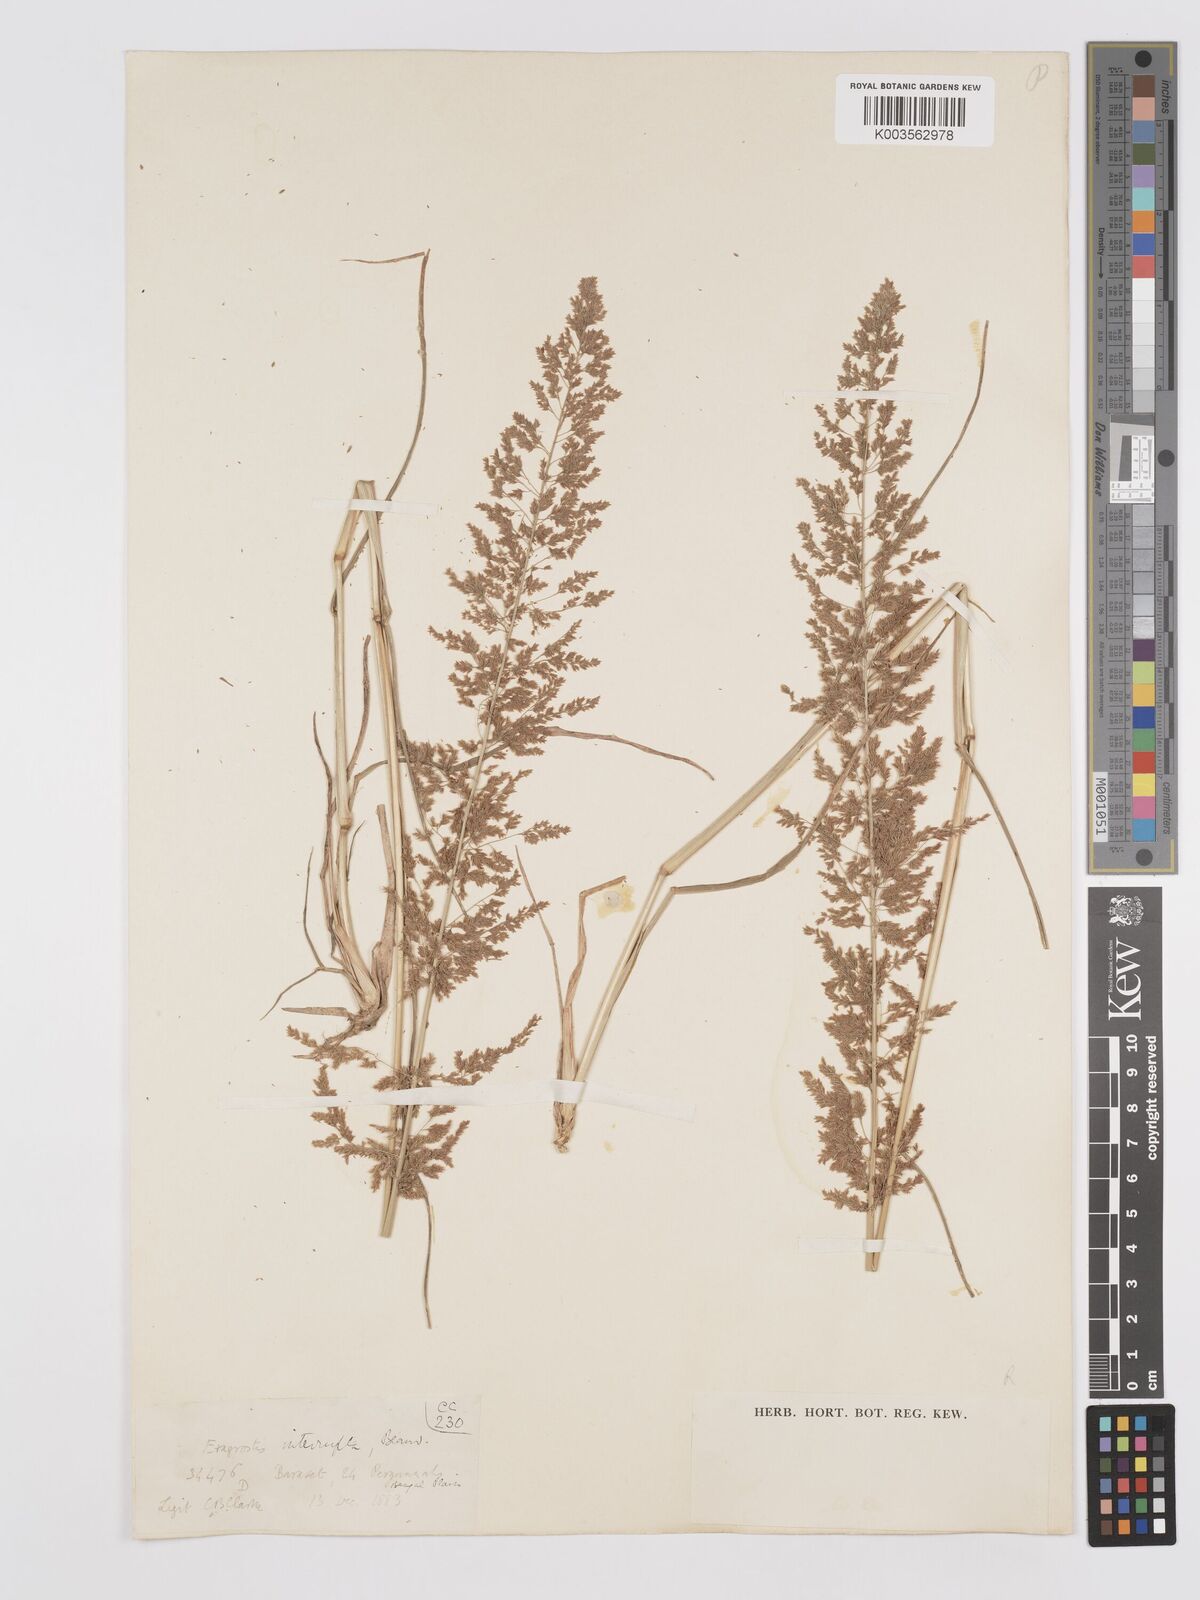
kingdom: Plantae
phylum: Tracheophyta
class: Liliopsida
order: Poales
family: Poaceae
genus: Eragrostis
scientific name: Eragrostis japonica
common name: Pond lovegrass
